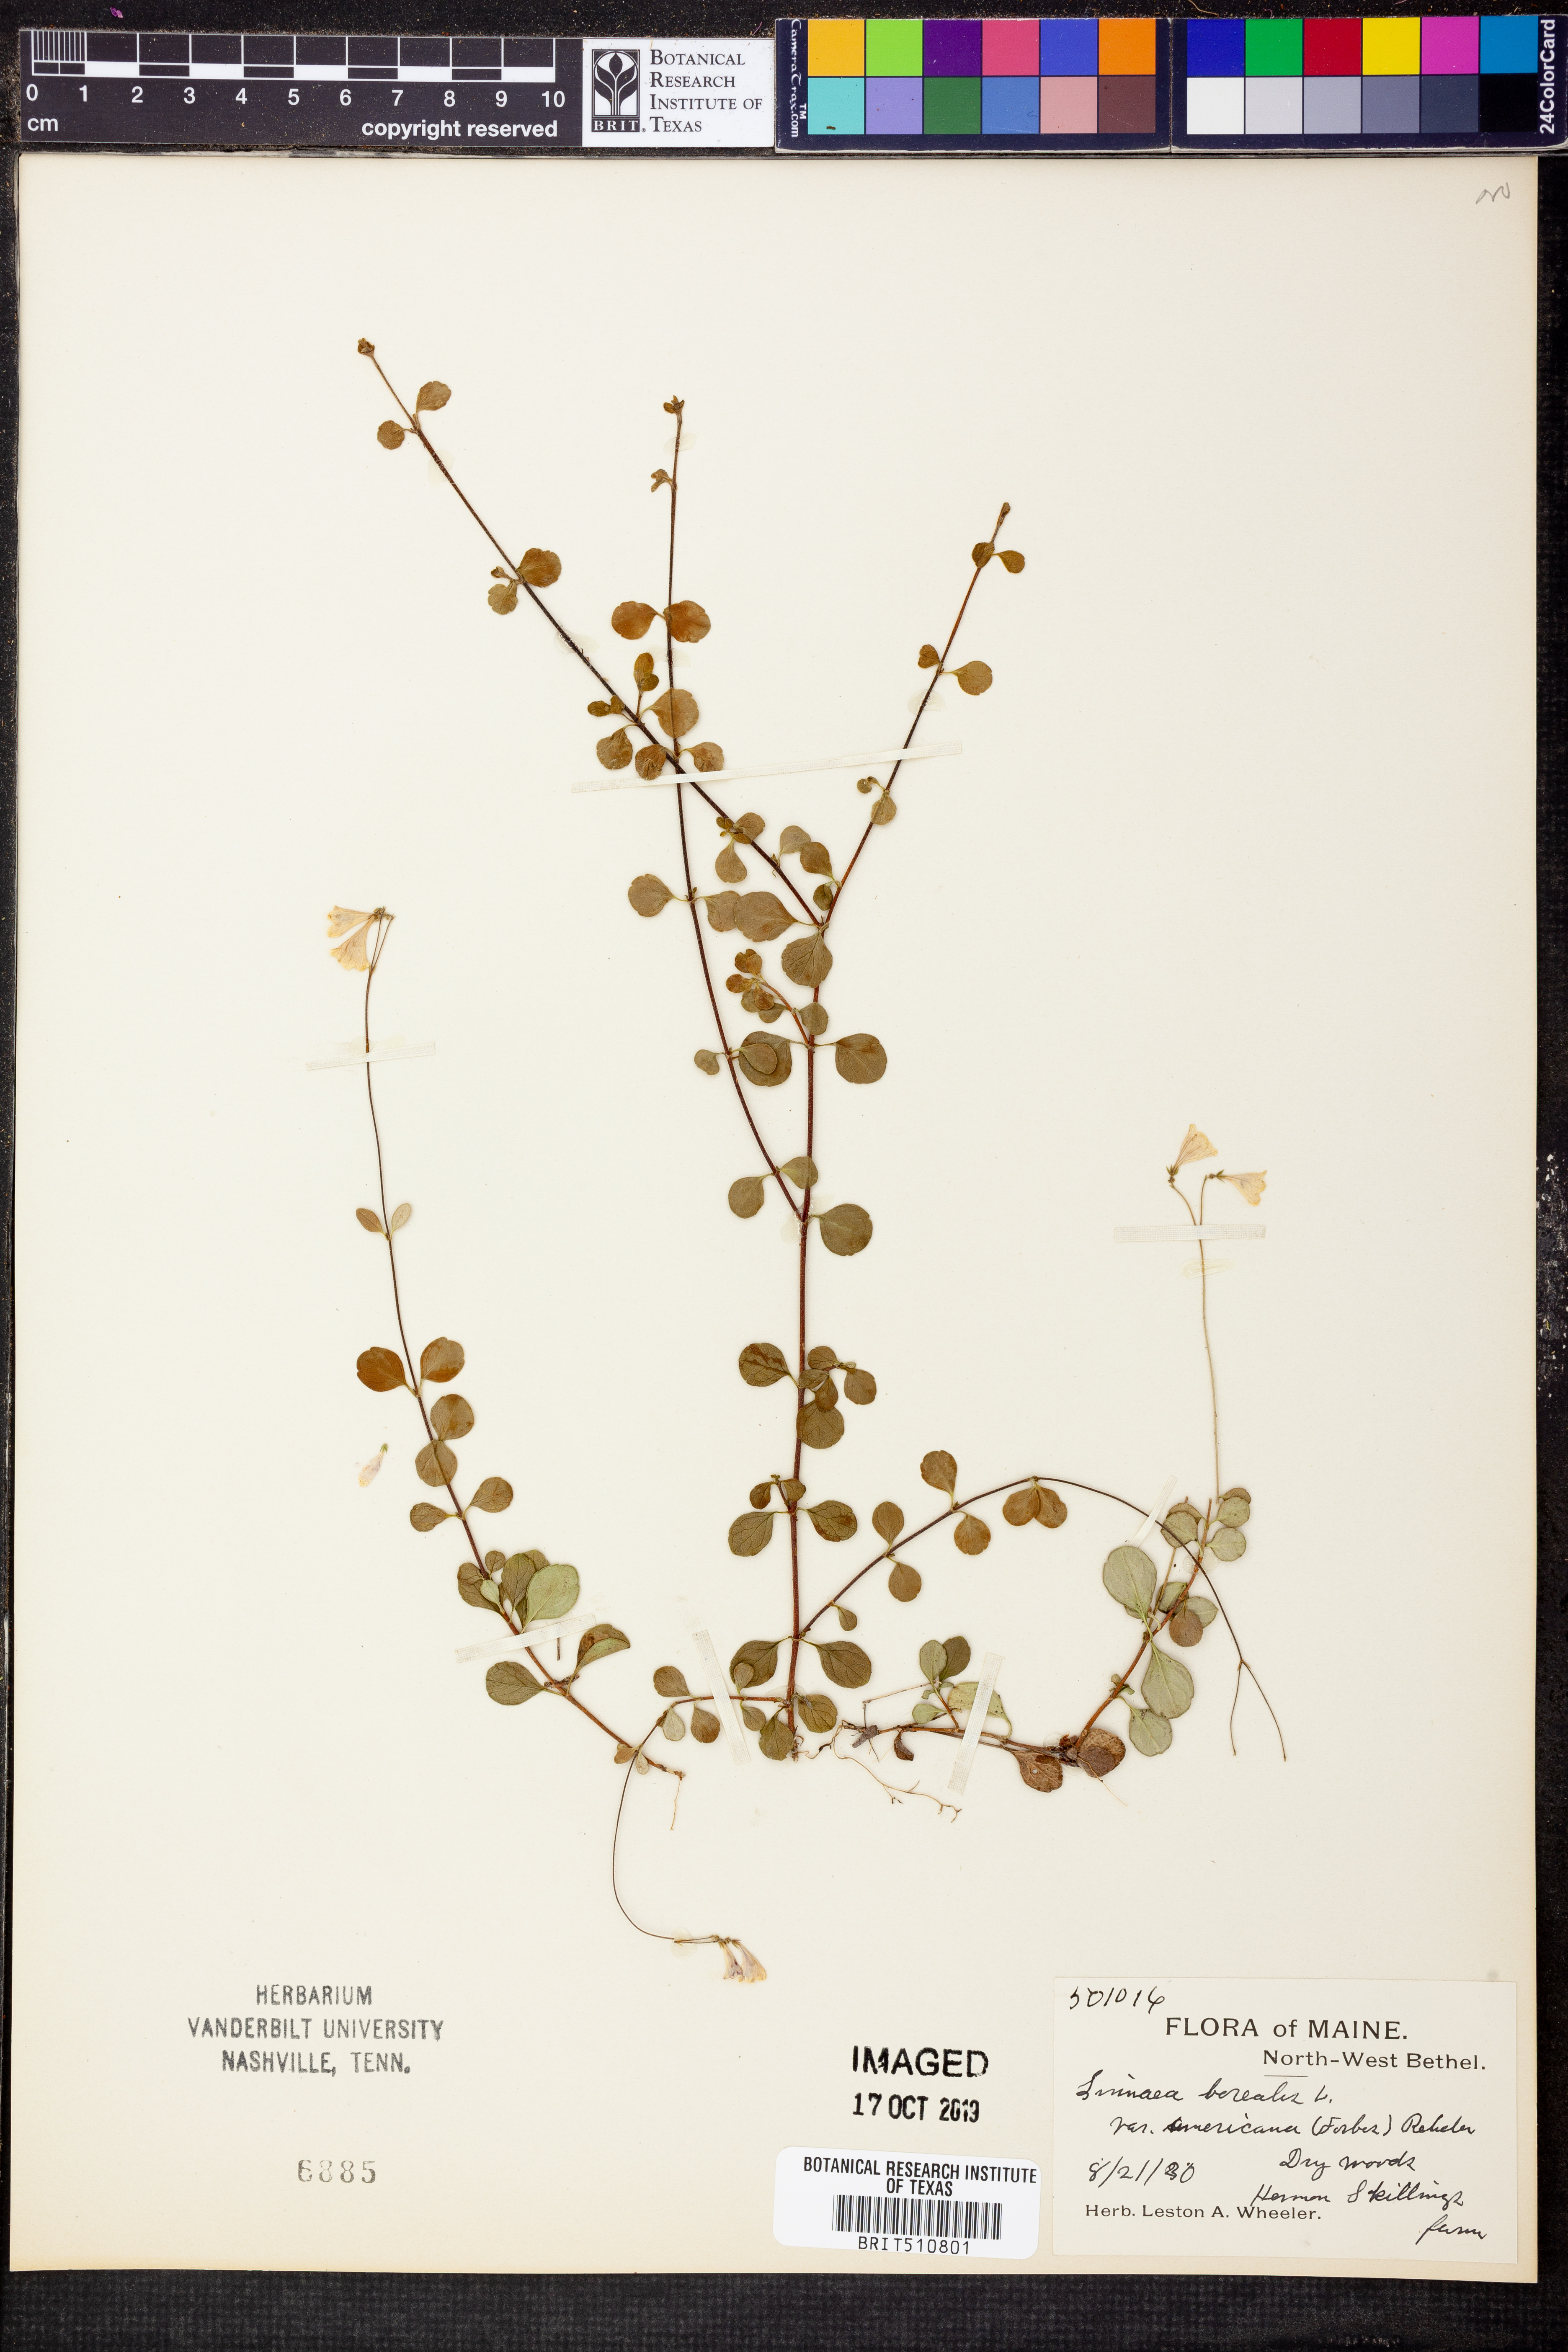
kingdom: Plantae
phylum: Tracheophyta
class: Magnoliopsida
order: Dipsacales
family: Caprifoliaceae
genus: Linnaea
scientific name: Linnaea borealis
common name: Twinflower
